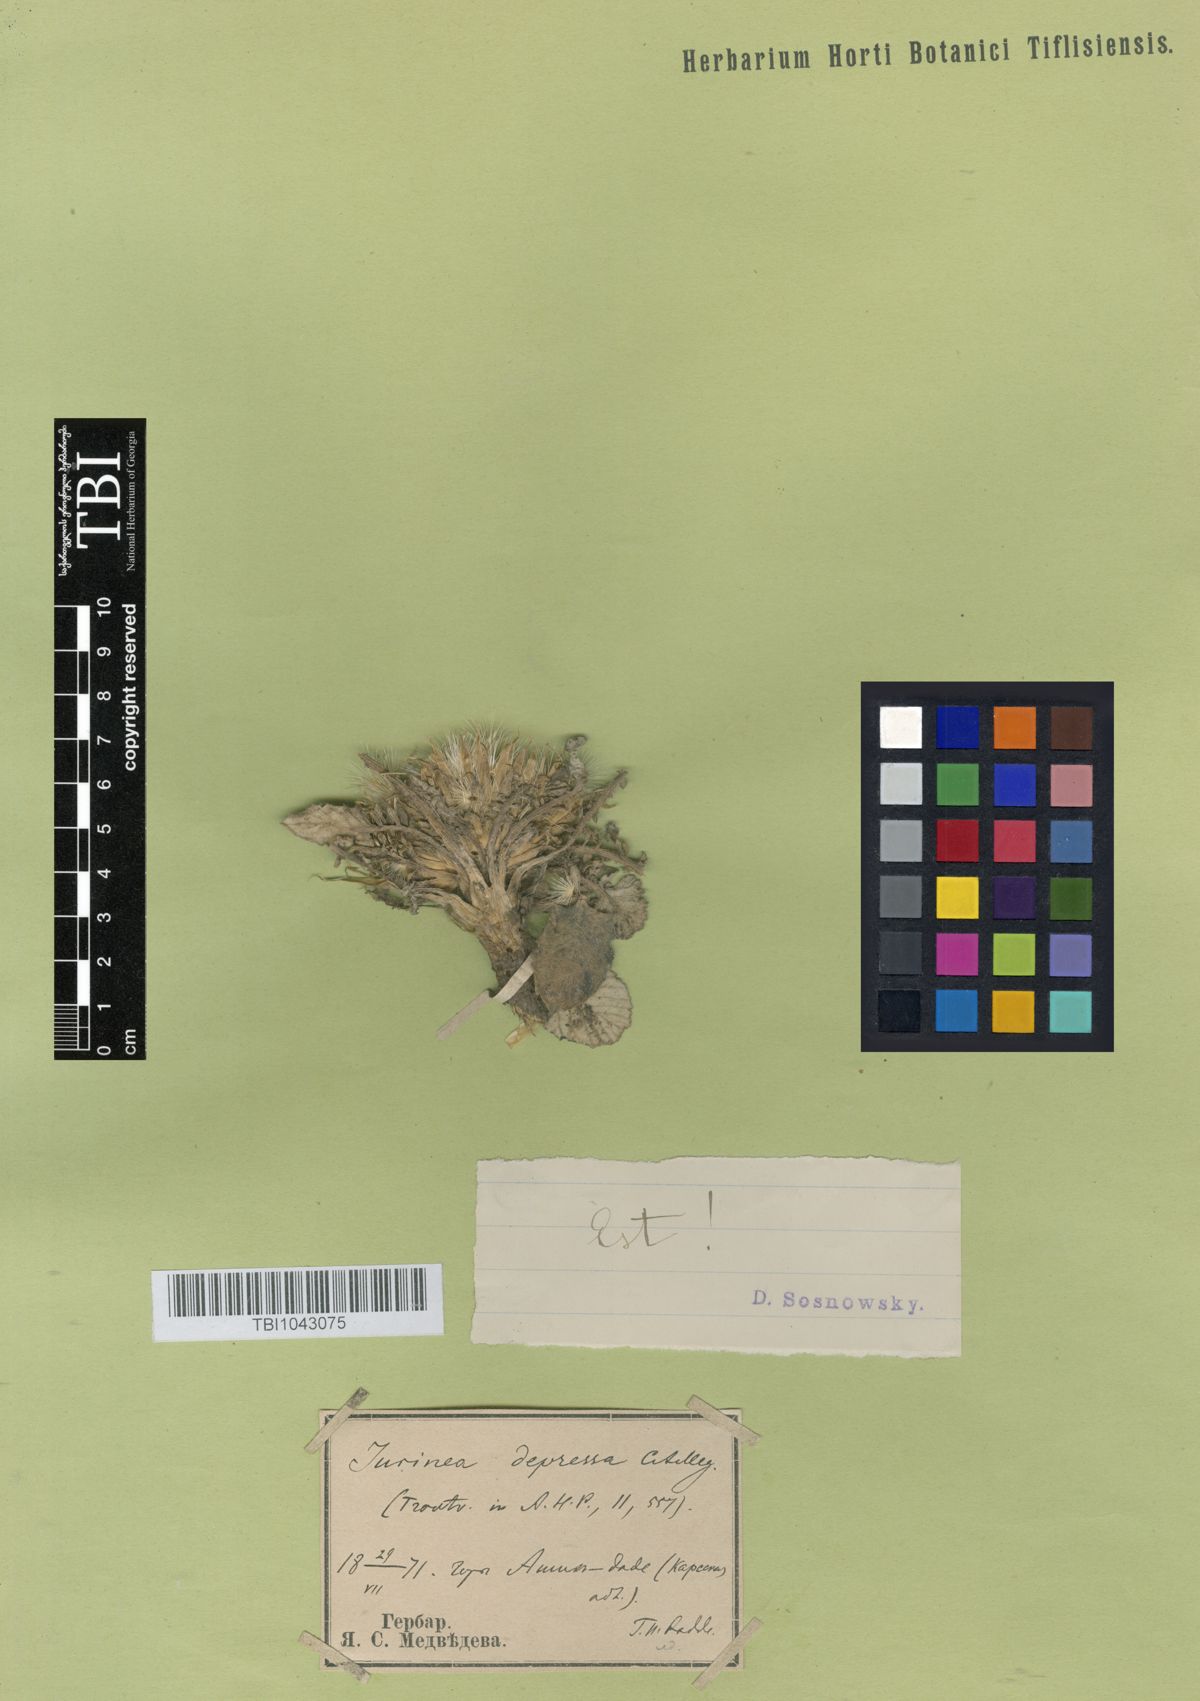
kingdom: Plantae
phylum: Tracheophyta
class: Magnoliopsida
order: Asterales
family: Asteraceae
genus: Jurinea
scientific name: Jurinea moschus
